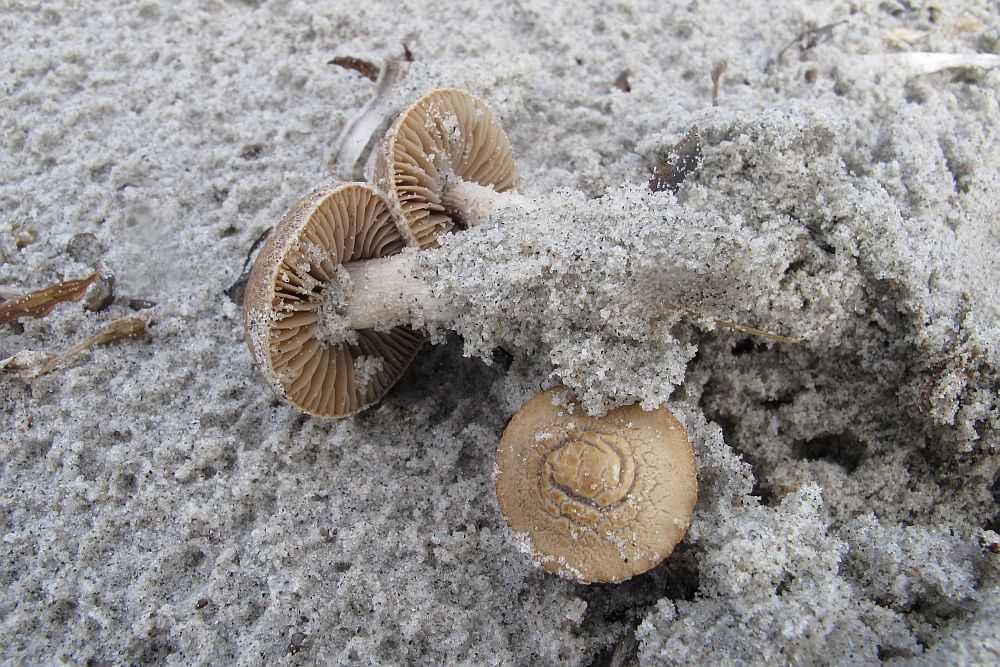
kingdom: Fungi
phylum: Basidiomycota
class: Agaricomycetes
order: Agaricales
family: Psathyrellaceae
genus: Psathyrella
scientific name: Psathyrella ammophila
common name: klit-mørkhat
